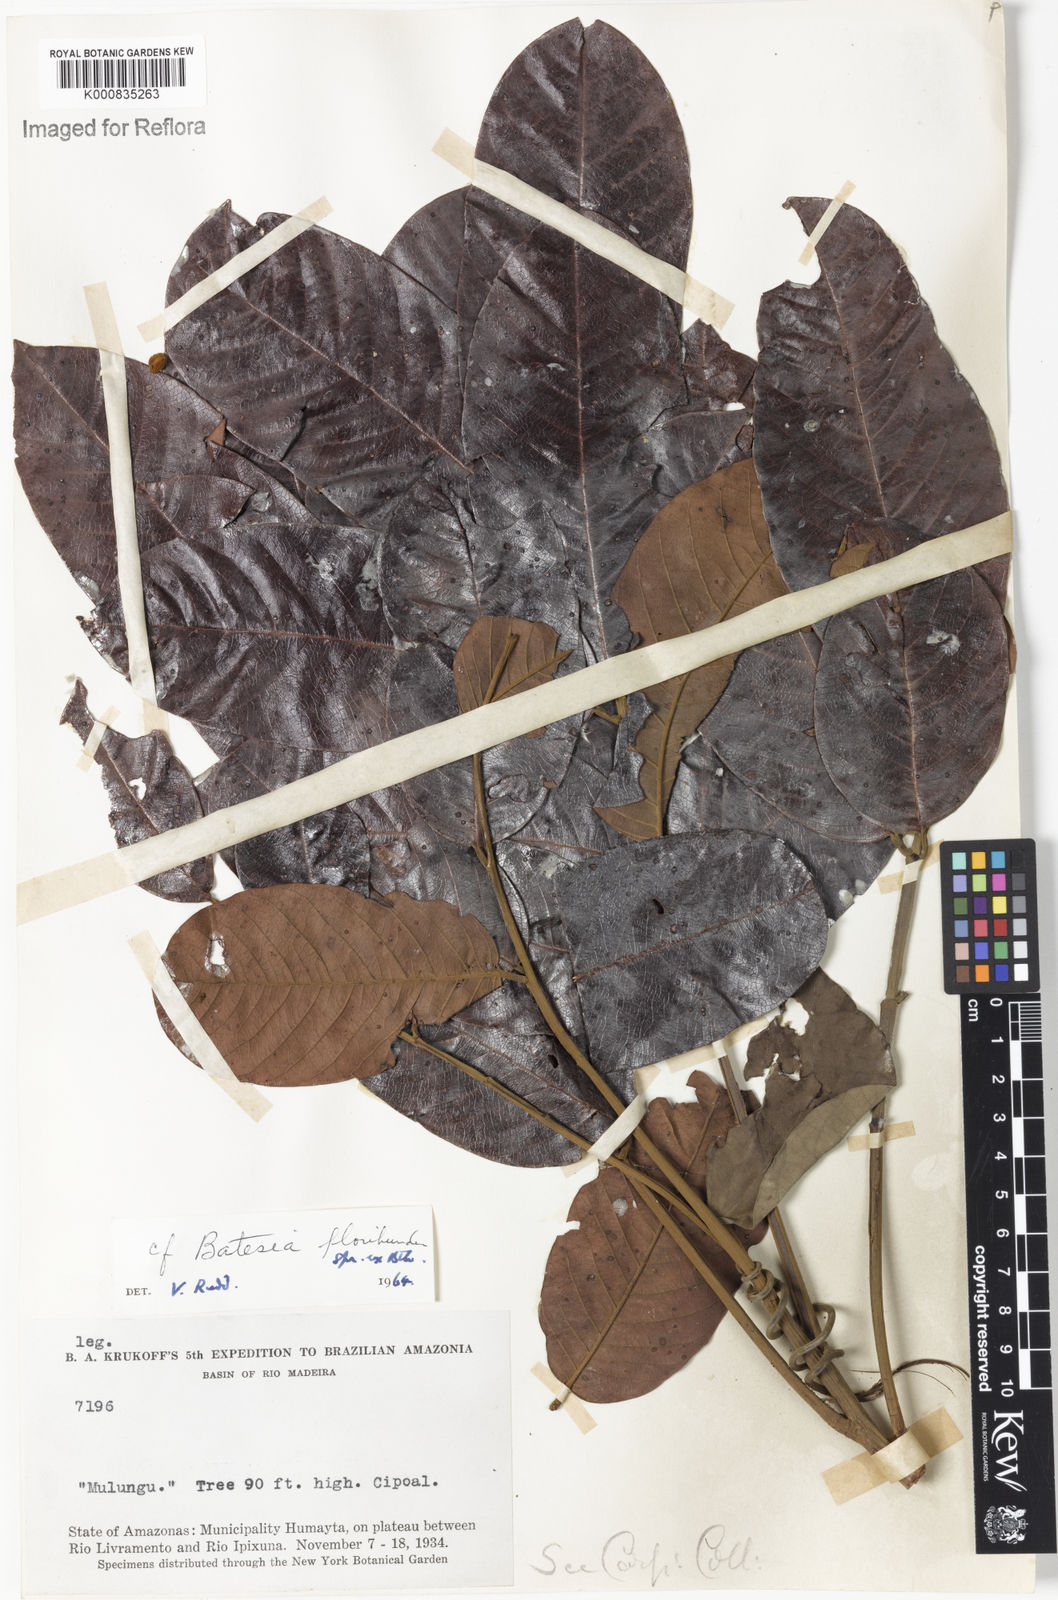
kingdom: Plantae
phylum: Tracheophyta
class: Magnoliopsida
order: Fabales
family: Fabaceae
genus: Batesia
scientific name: Batesia floribunda
